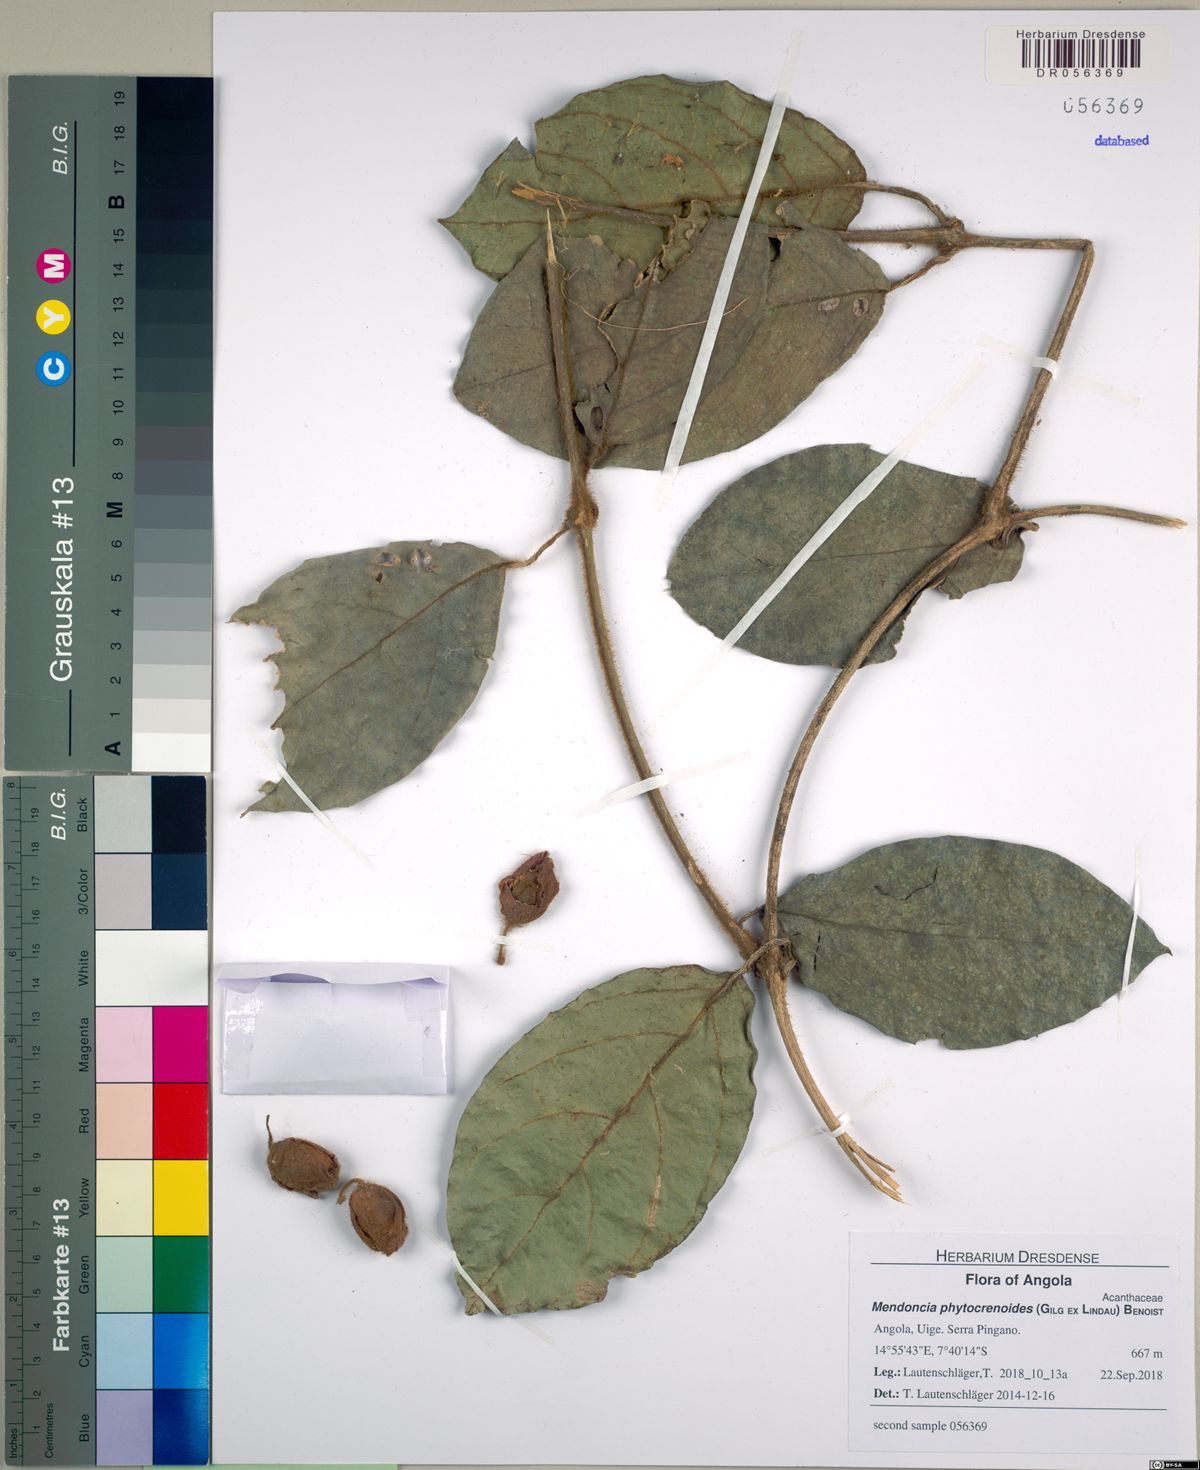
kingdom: Plantae
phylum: Tracheophyta
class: Magnoliopsida
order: Lamiales
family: Acanthaceae
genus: Mendoncia
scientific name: Mendoncia phytocrenoides
